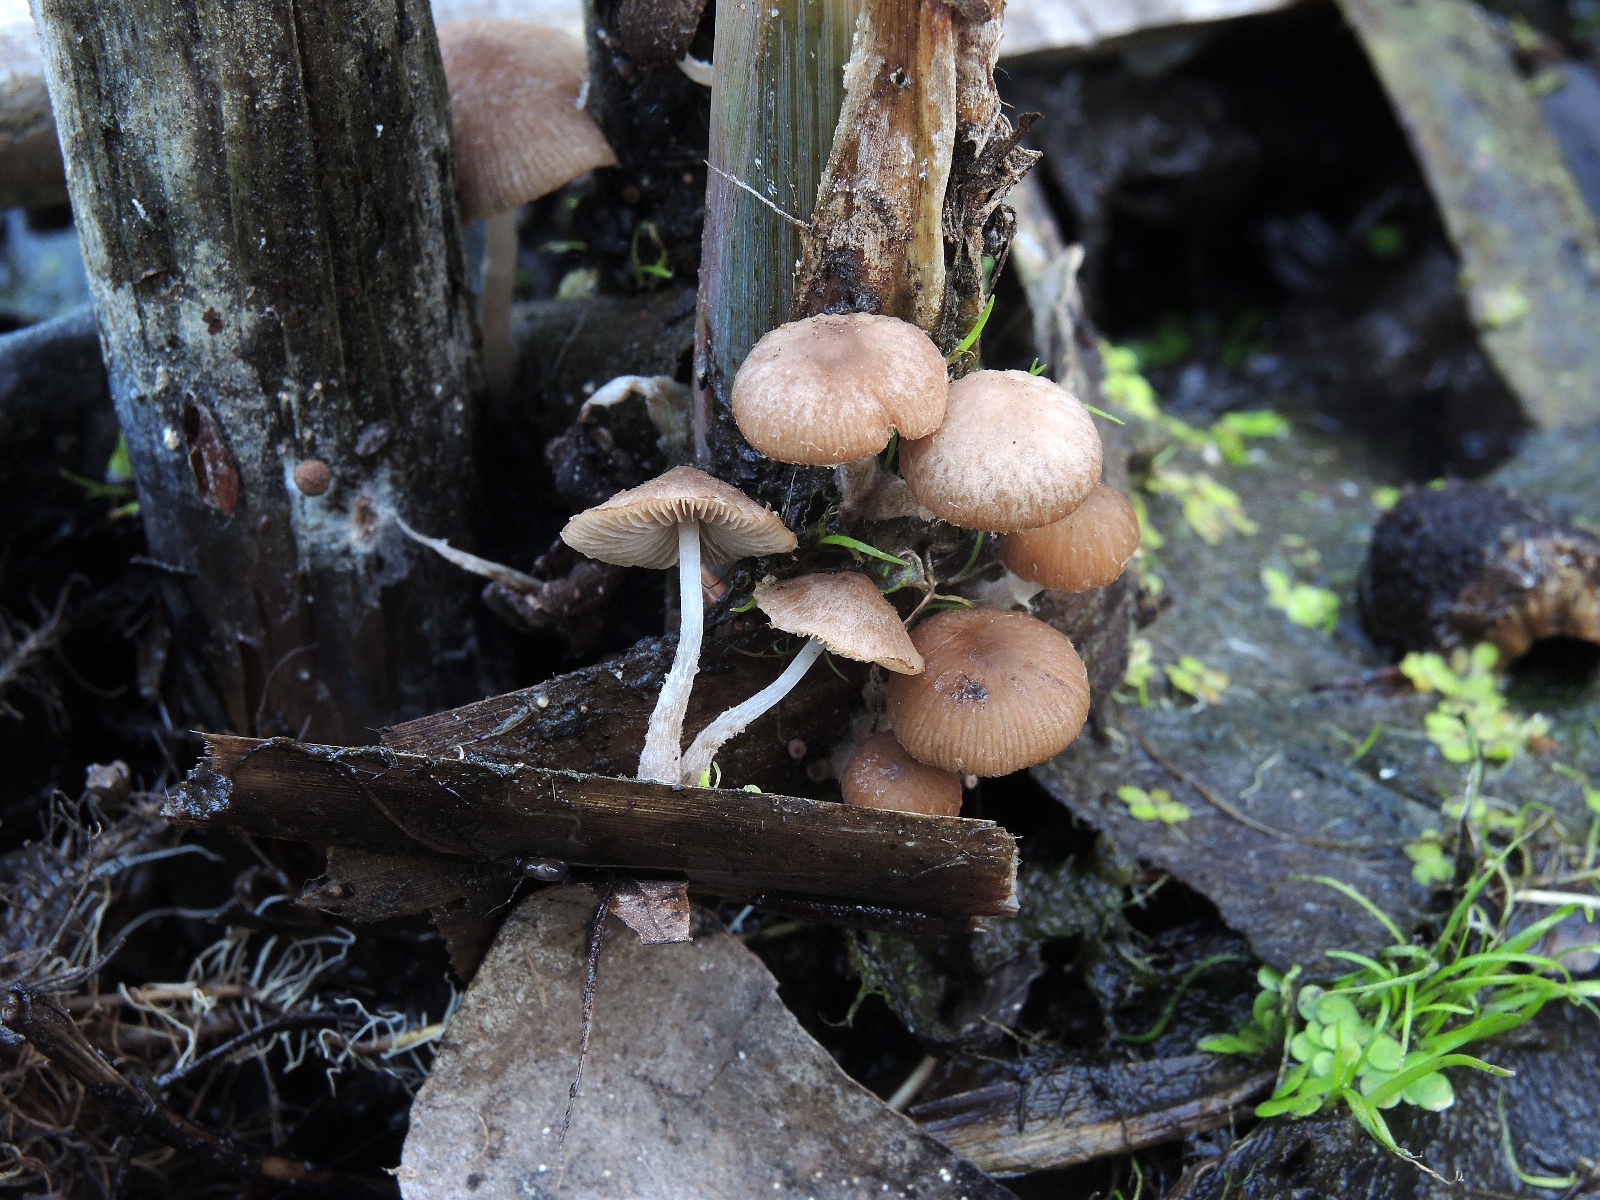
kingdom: Fungi
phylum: Basidiomycota
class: Agaricomycetes
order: Agaricales
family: Psathyrellaceae
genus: Candolleomyces
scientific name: Candolleomyces typhae
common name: dunhammer-mørkhat
